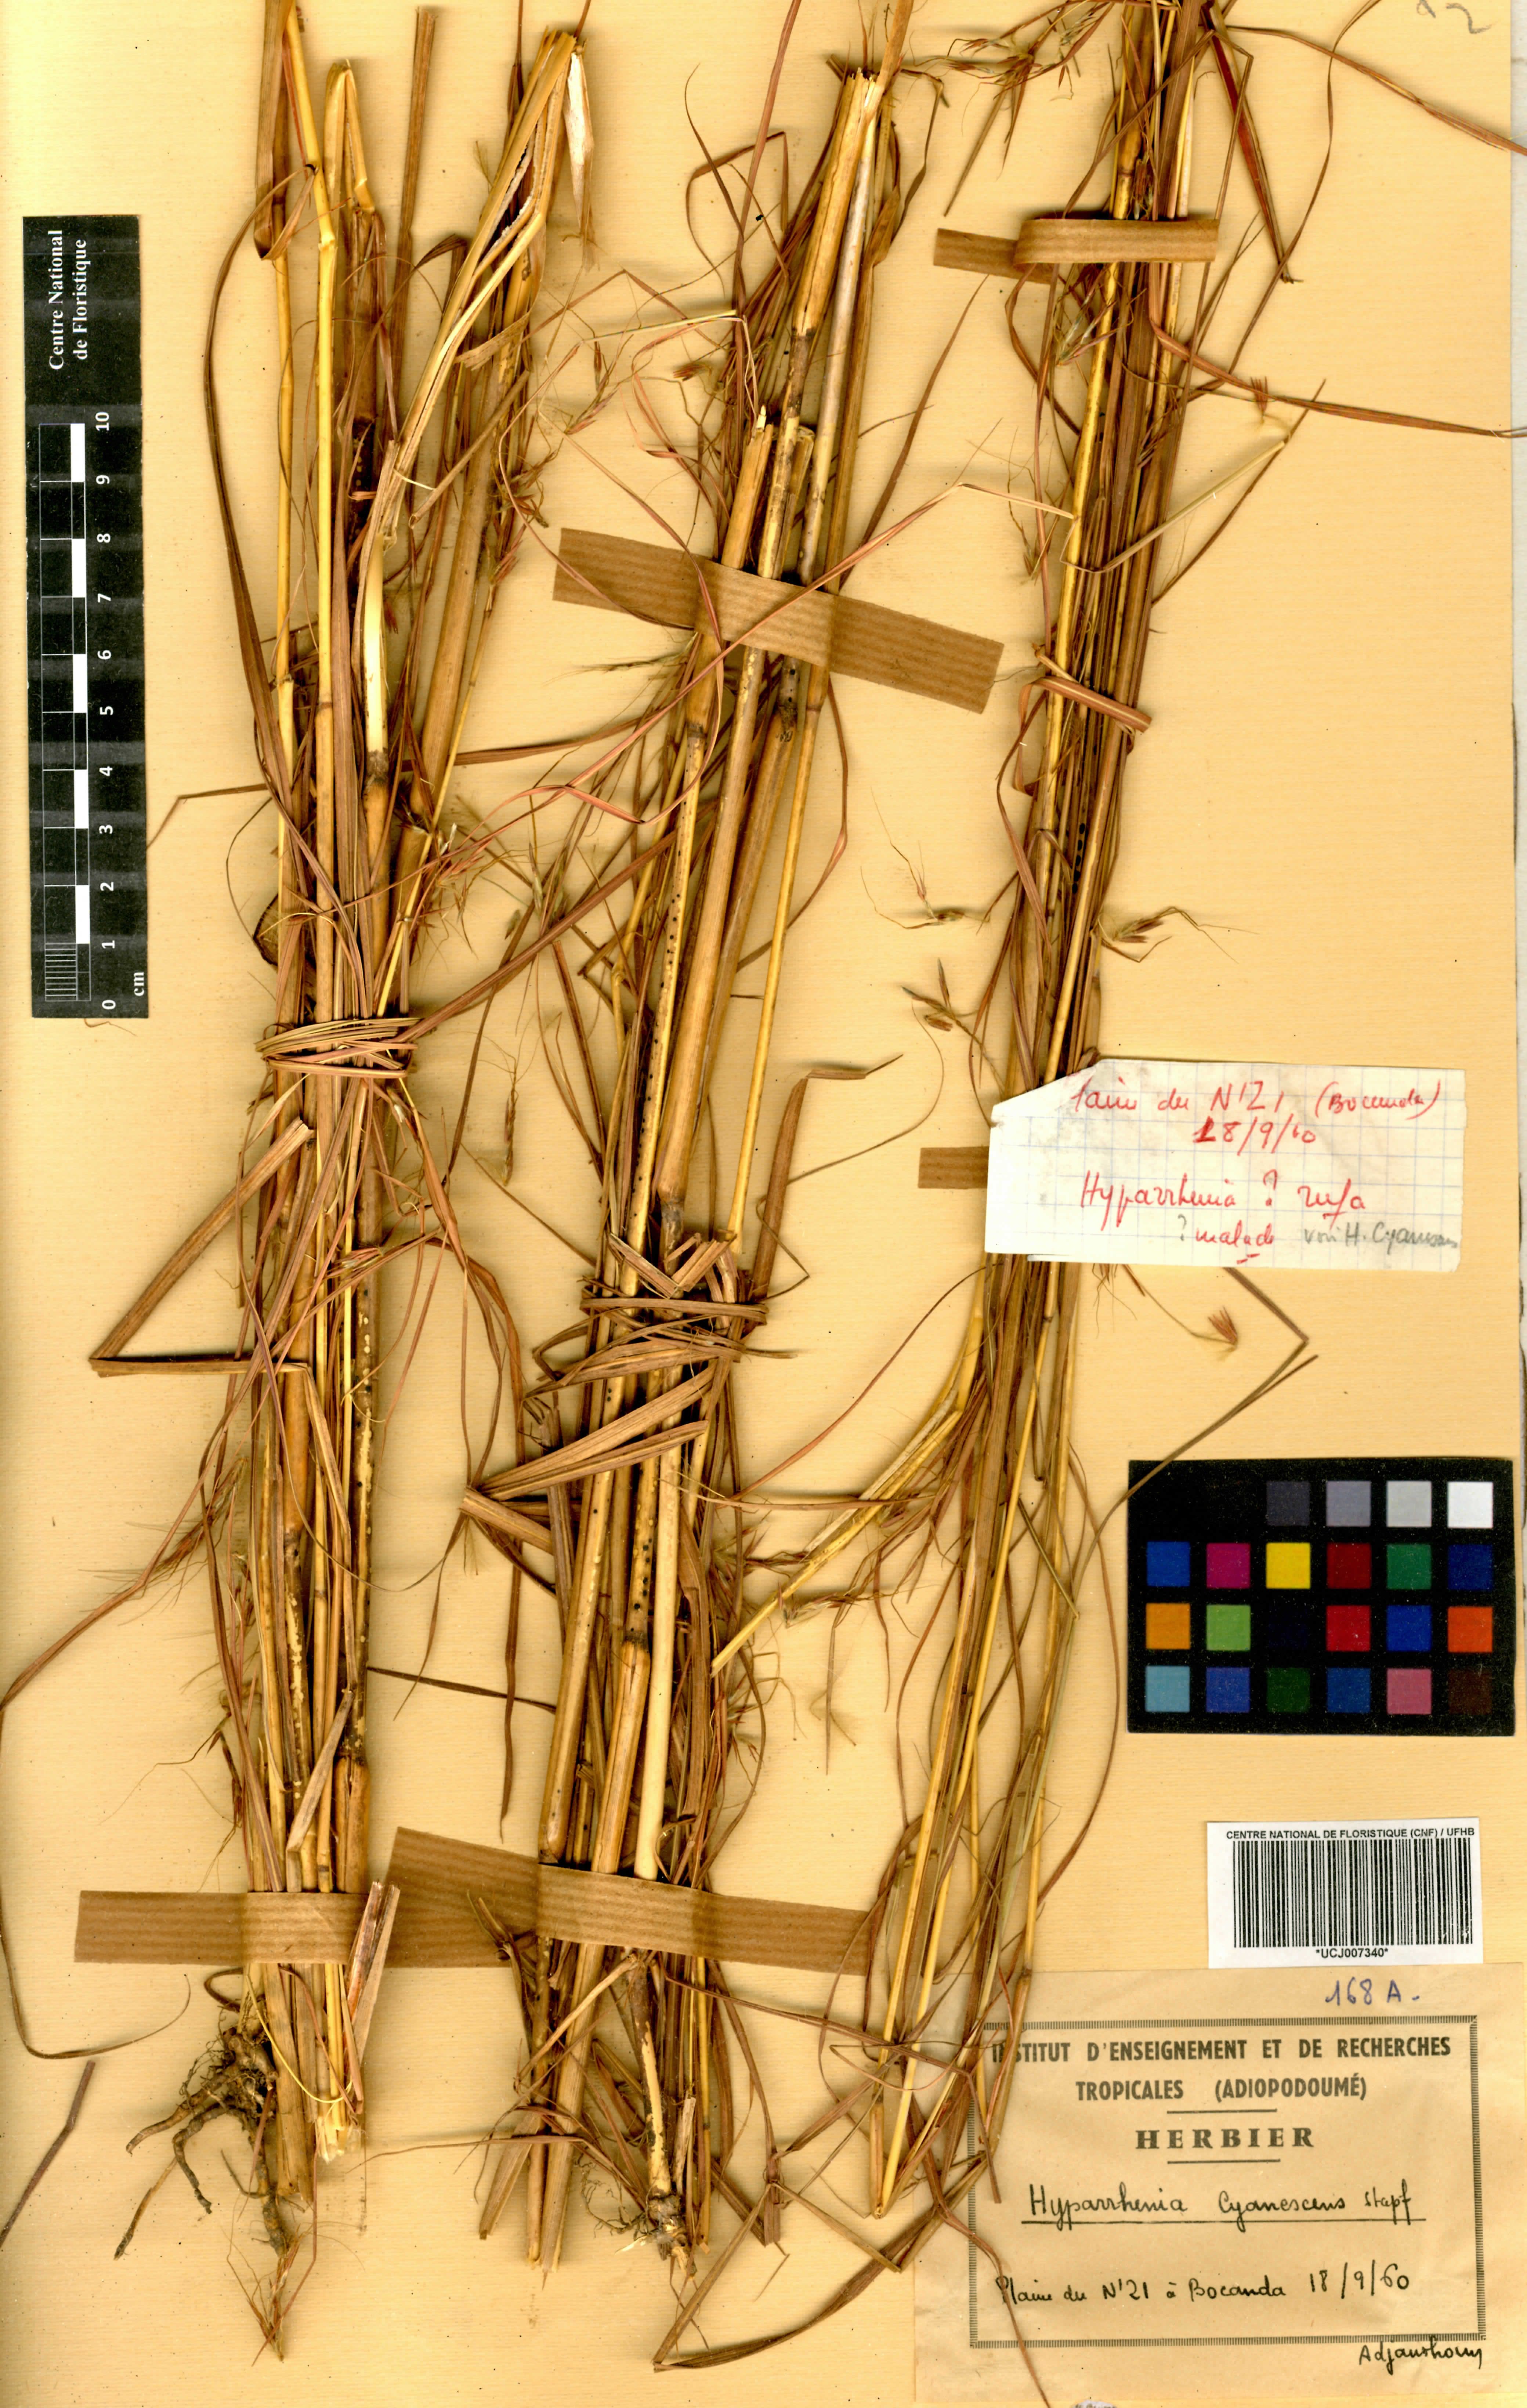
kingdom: Plantae
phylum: Tracheophyta
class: Liliopsida
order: Poales
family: Poaceae
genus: Hyparrhenia
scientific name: Hyparrhenia diplandra
